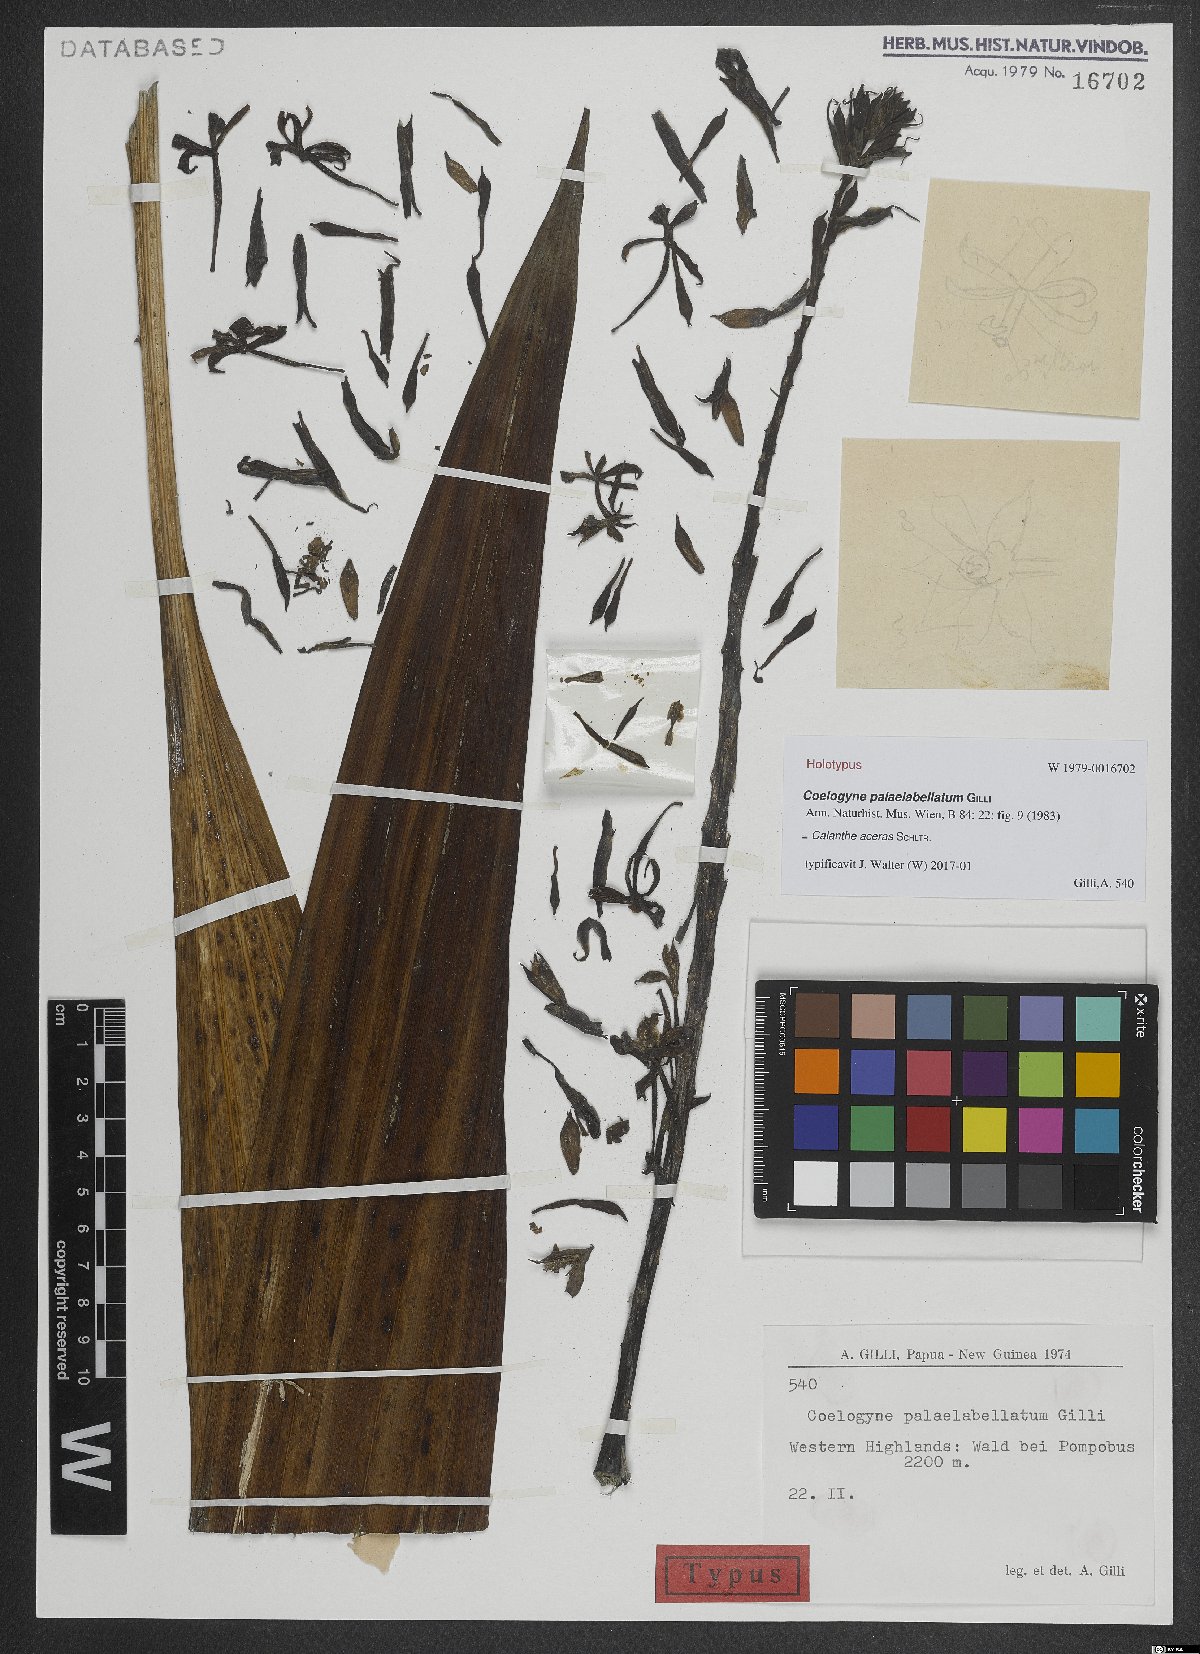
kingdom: Plantae
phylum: Tracheophyta
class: Liliopsida
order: Asparagales
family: Orchidaceae
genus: Calanthe
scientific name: Calanthe aceras
